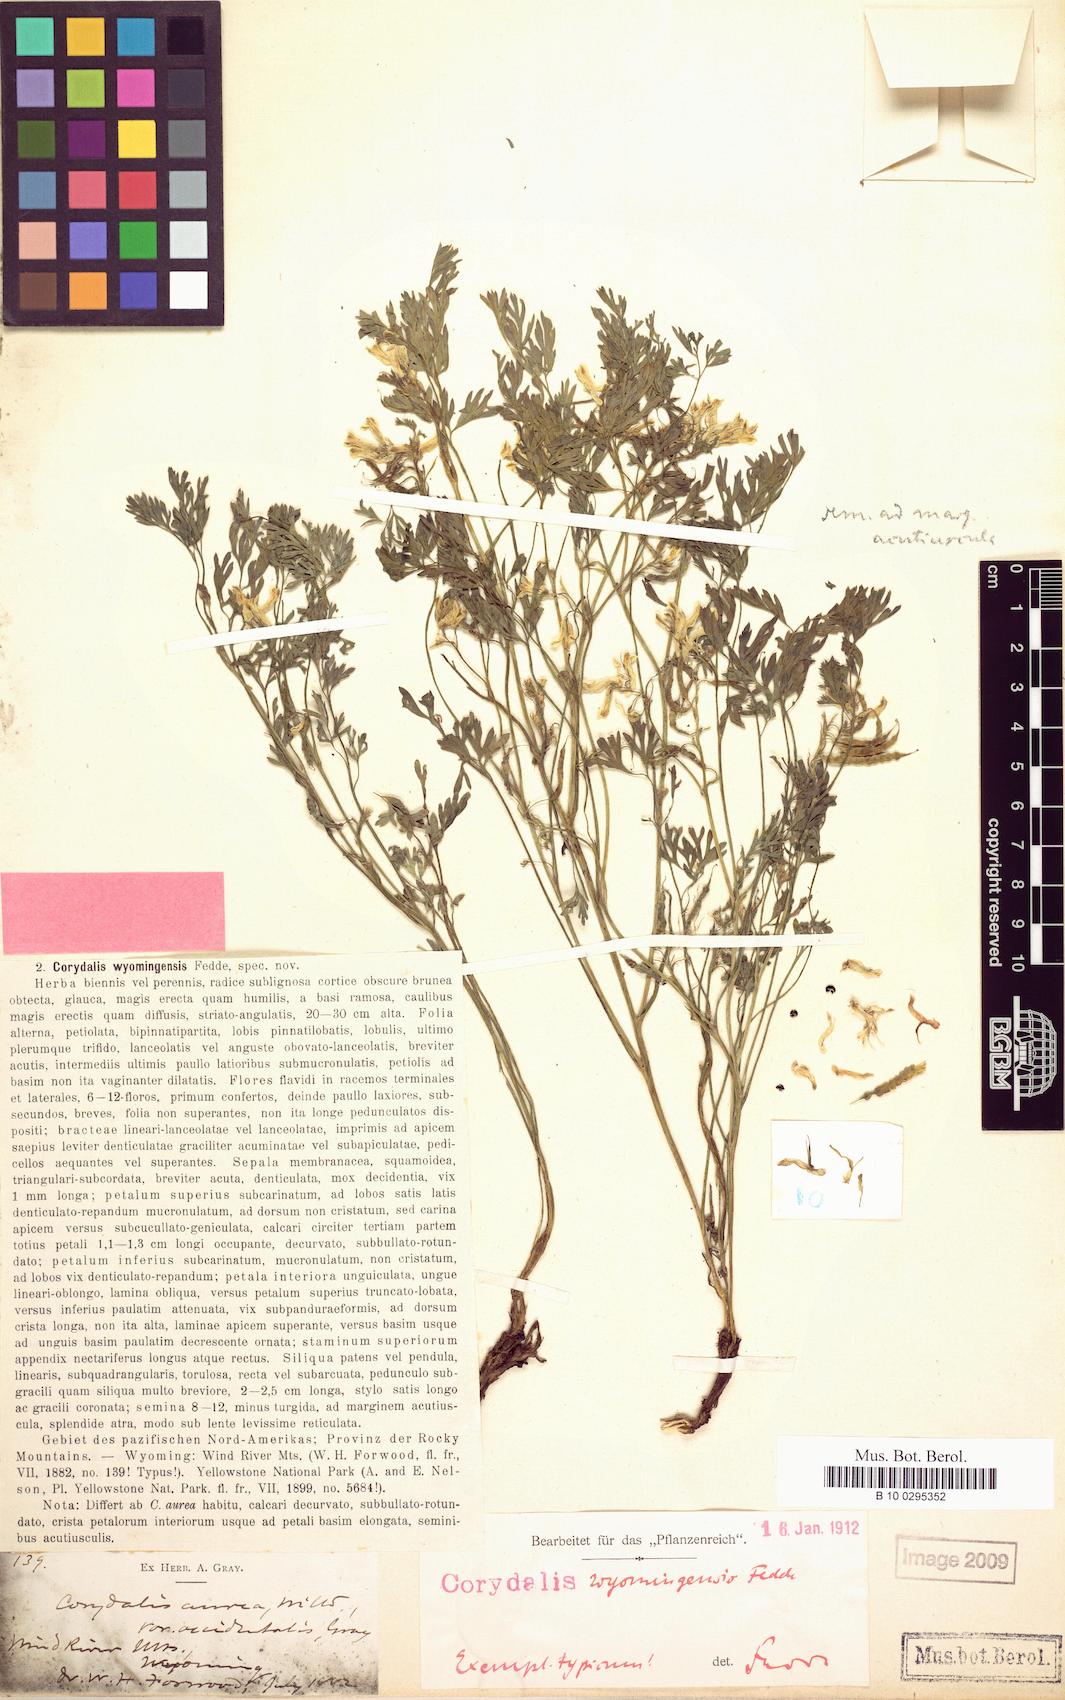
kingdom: Plantae
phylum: Tracheophyta
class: Magnoliopsida
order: Ranunculales
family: Papaveraceae
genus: Corydalis
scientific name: Corydalis aurea
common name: Golden corydalis
